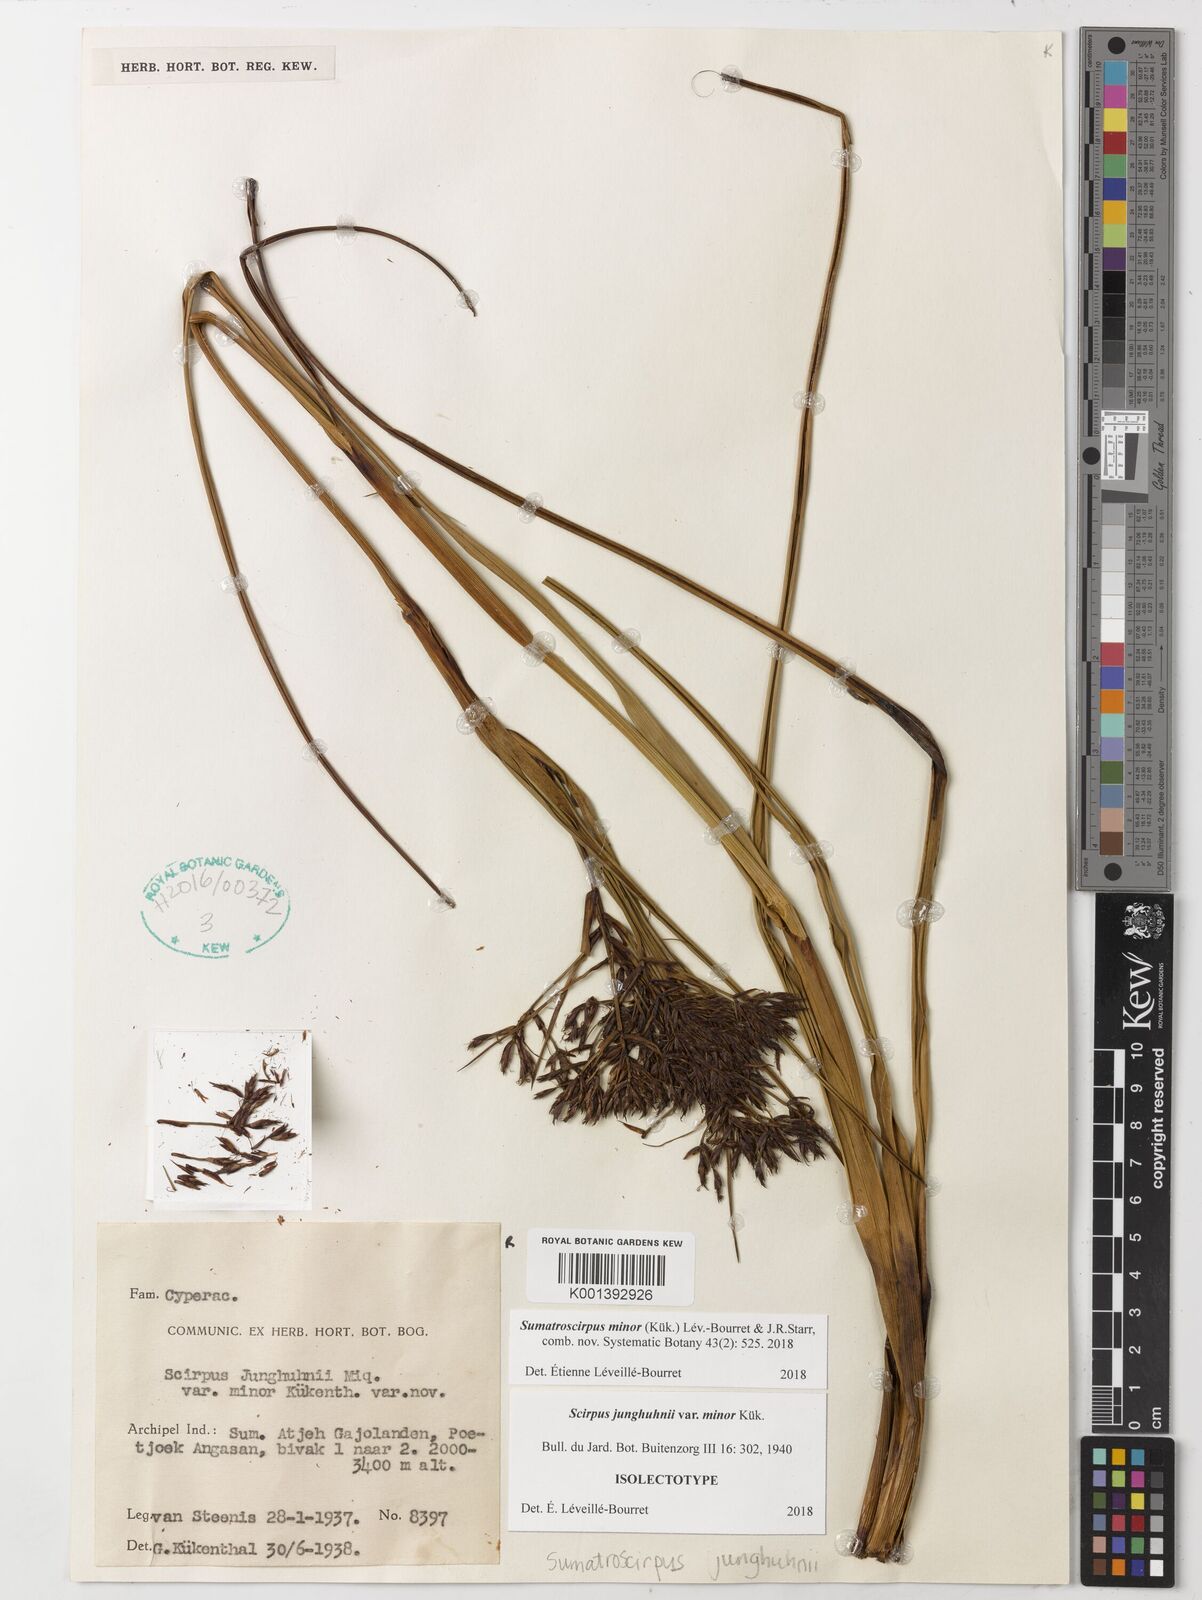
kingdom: Plantae
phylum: Tracheophyta
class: Liliopsida
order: Poales
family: Cyperaceae
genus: Sumatroscirpus
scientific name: Sumatroscirpus minor
